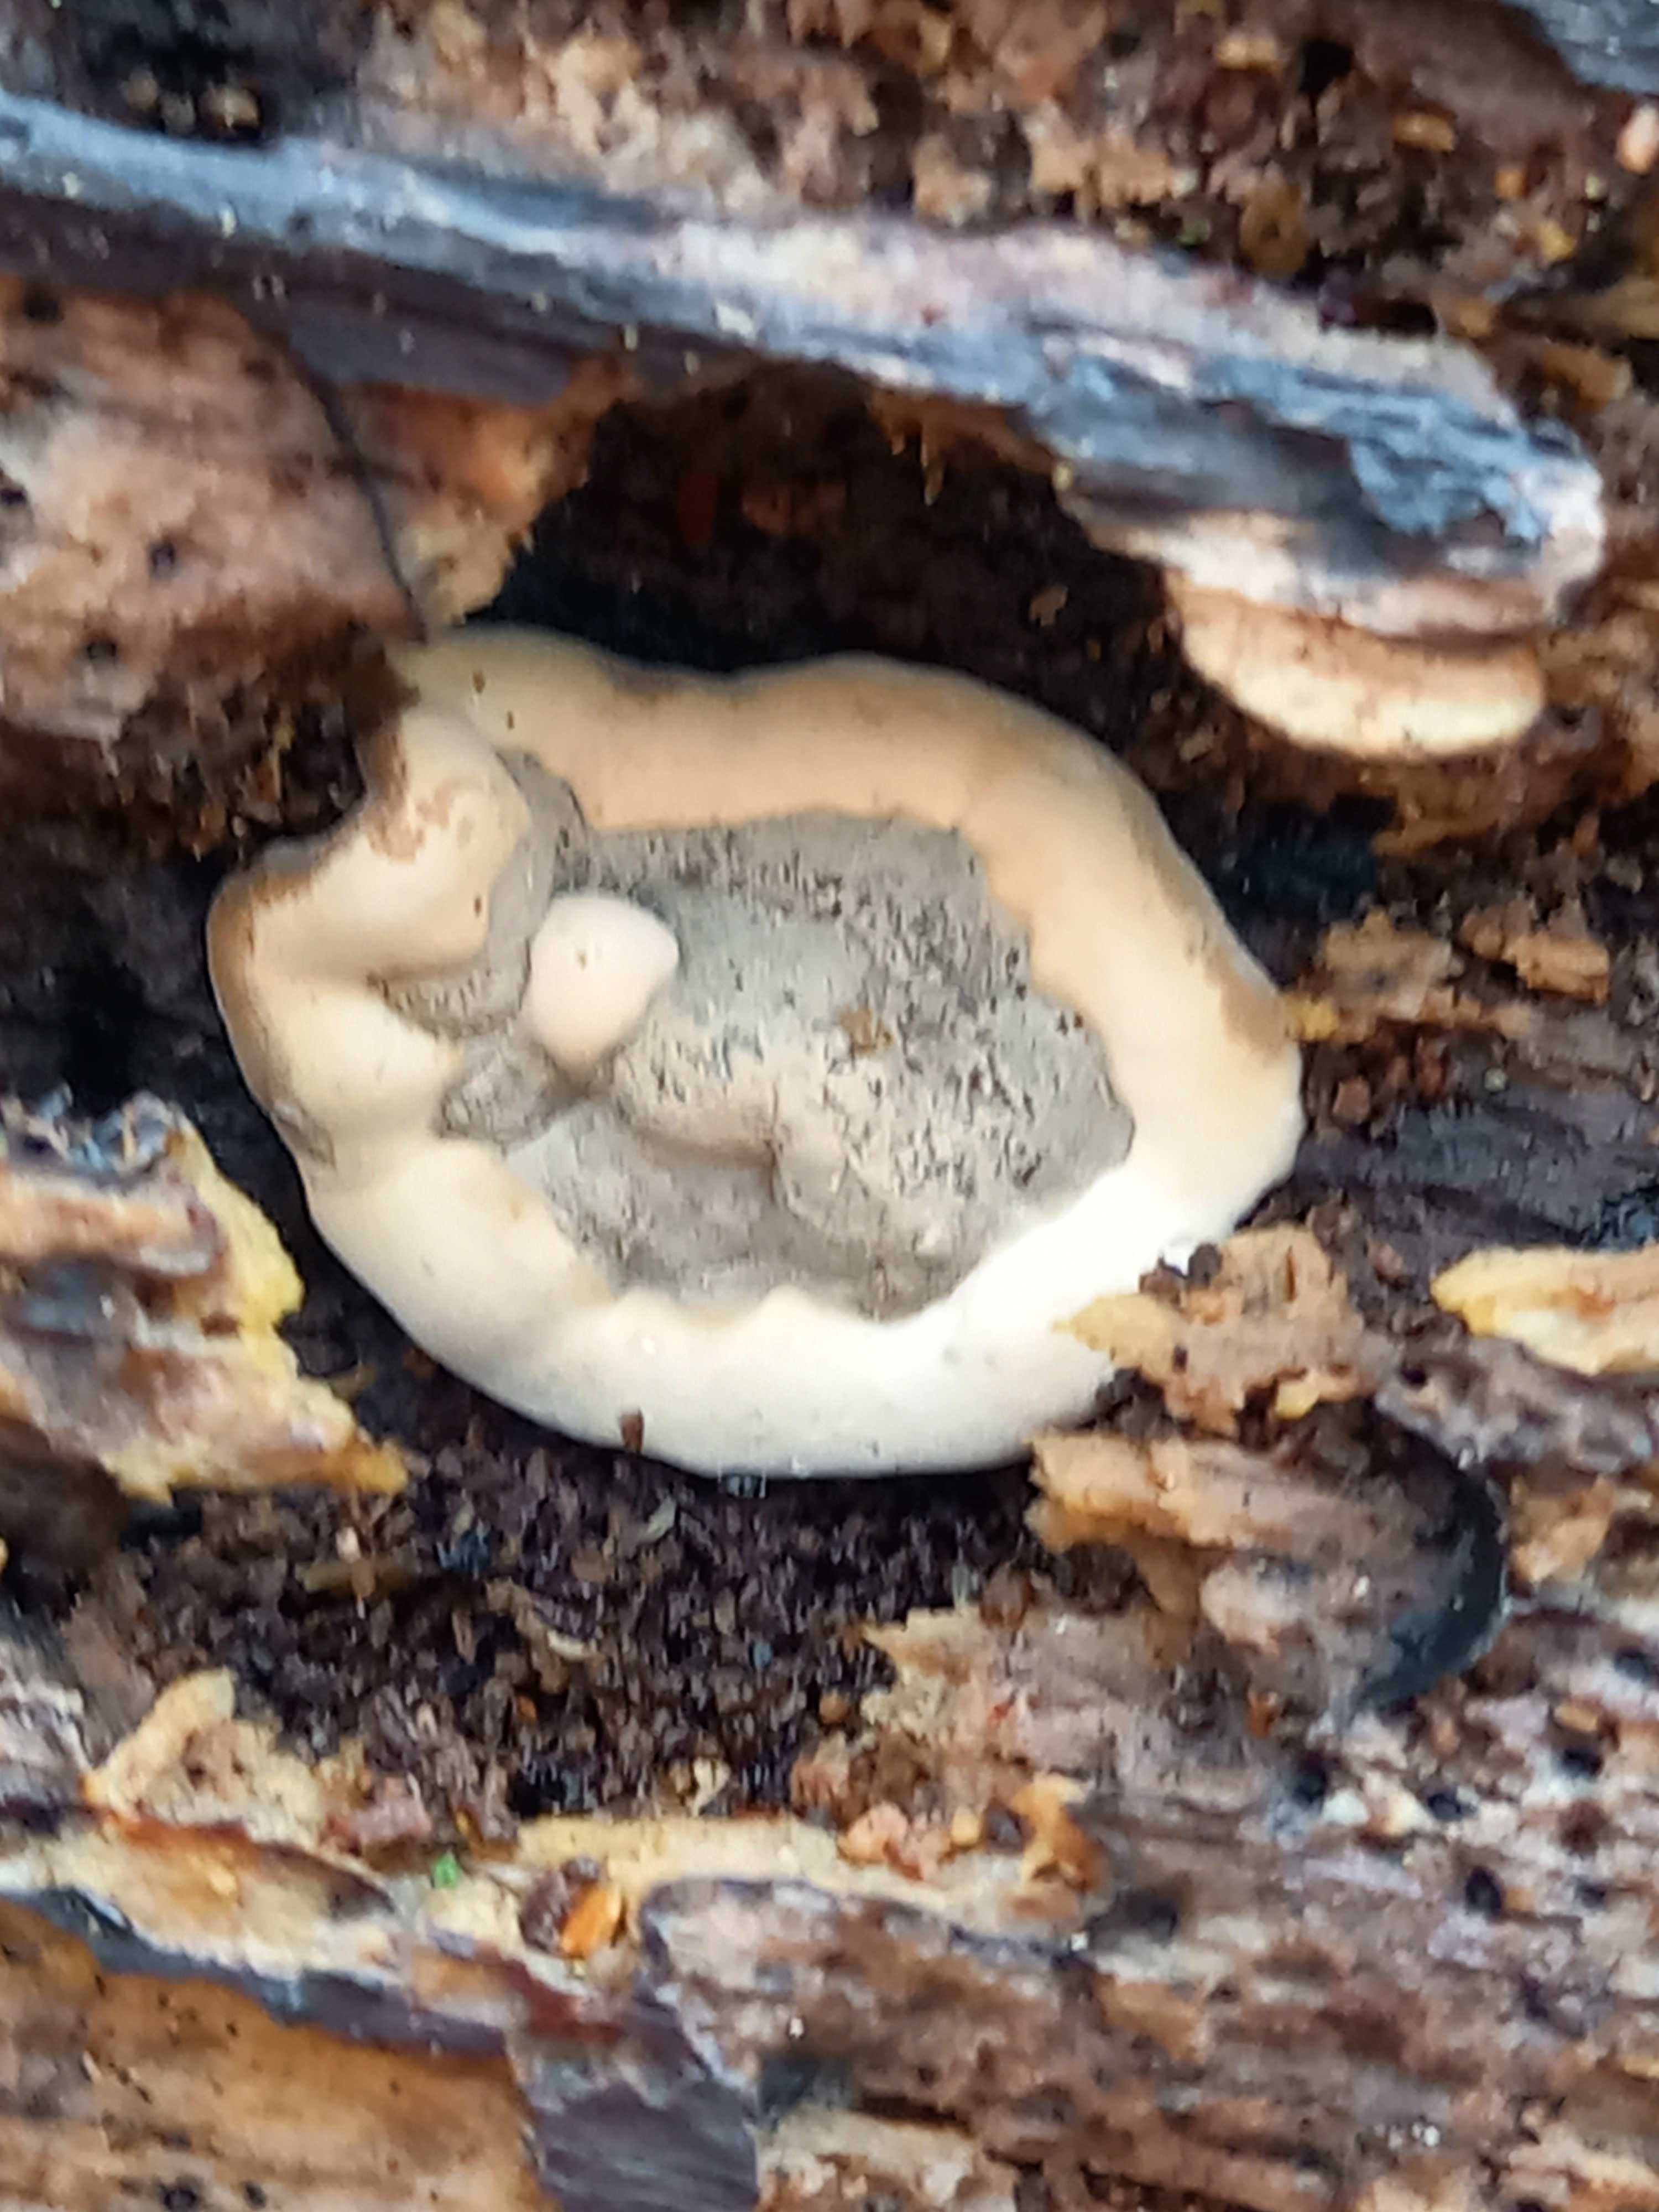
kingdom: Fungi
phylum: Ascomycota
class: Sordariomycetes
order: Xylariales
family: Xylariaceae
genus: Kretzschmaria
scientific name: Kretzschmaria deusta
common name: stor kulsvamp
